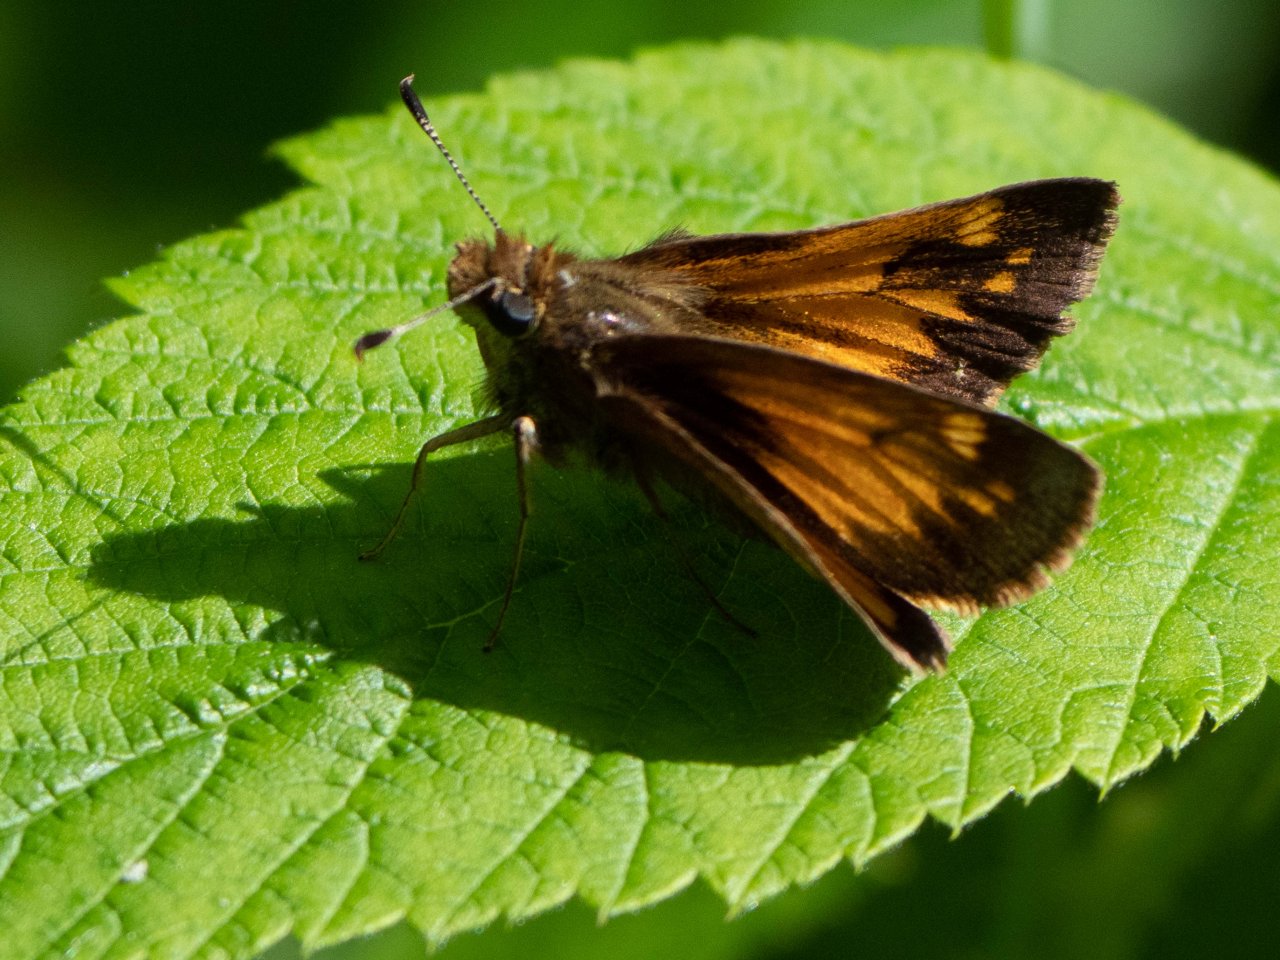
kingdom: Animalia
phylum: Arthropoda
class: Insecta
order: Lepidoptera
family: Hesperiidae
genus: Lon
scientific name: Lon hobomok
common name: Hobomok Skipper
